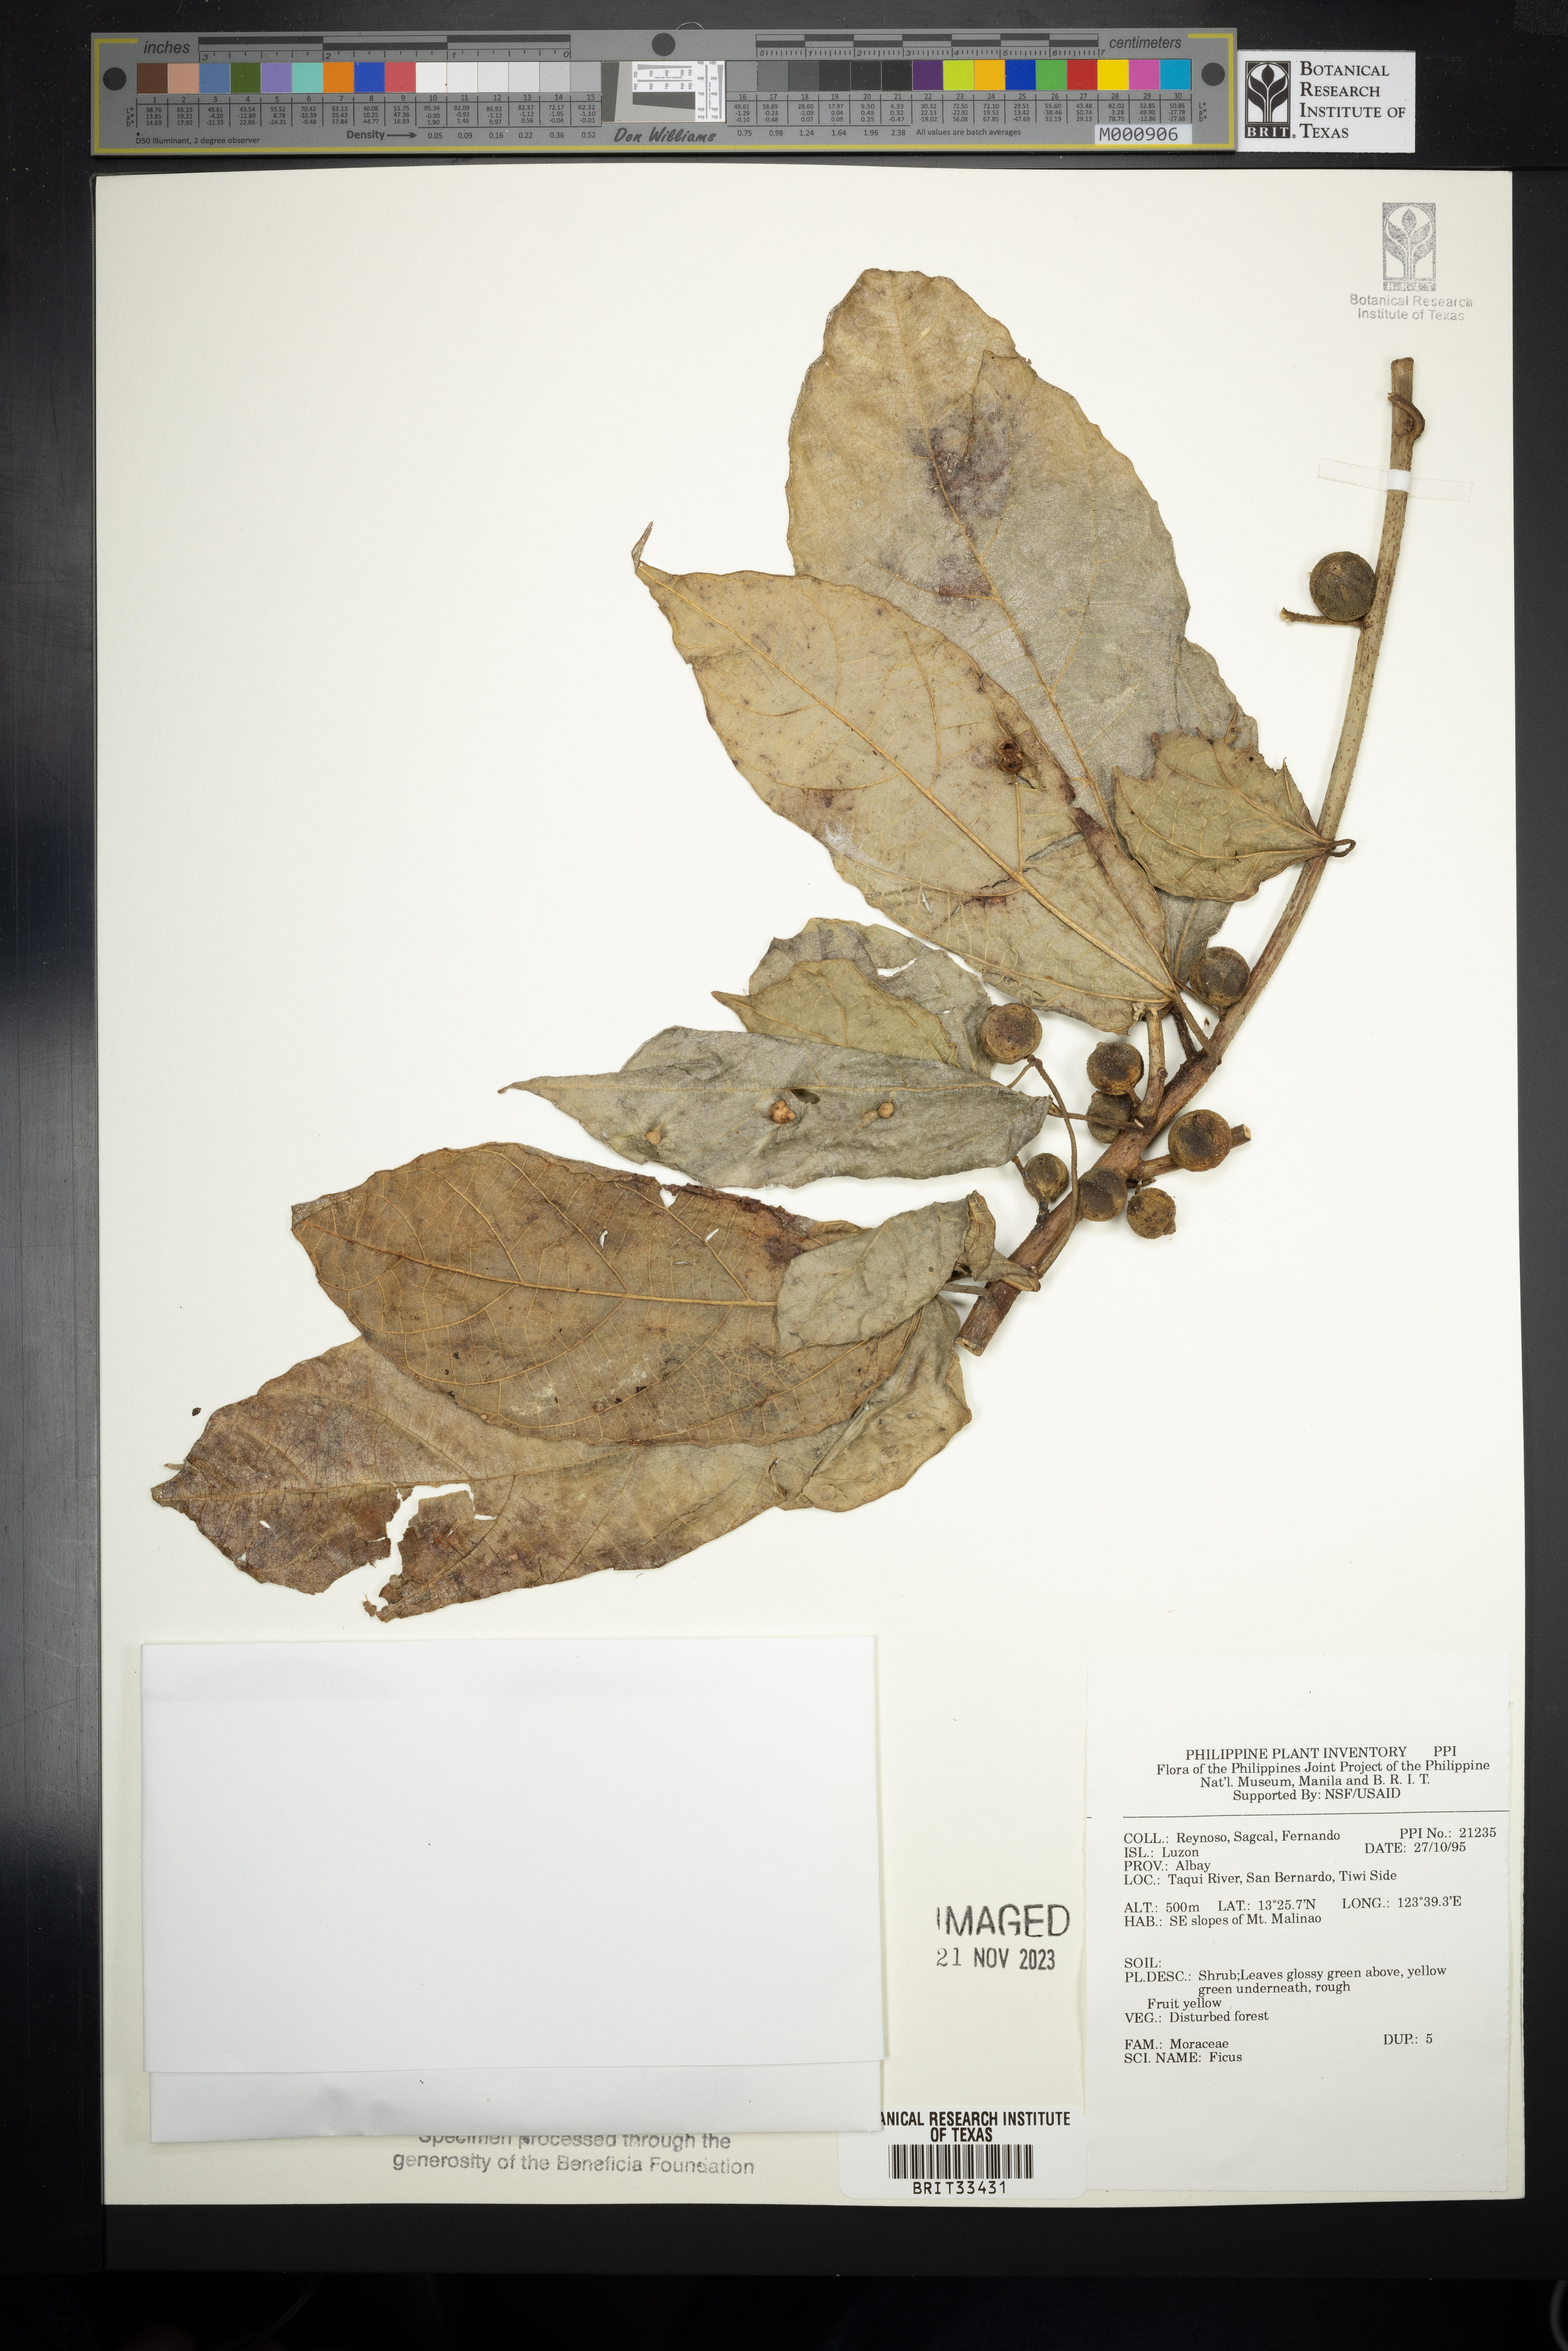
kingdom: Plantae
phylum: Tracheophyta
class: Magnoliopsida
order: Rosales
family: Moraceae
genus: Ficus
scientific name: Ficus
